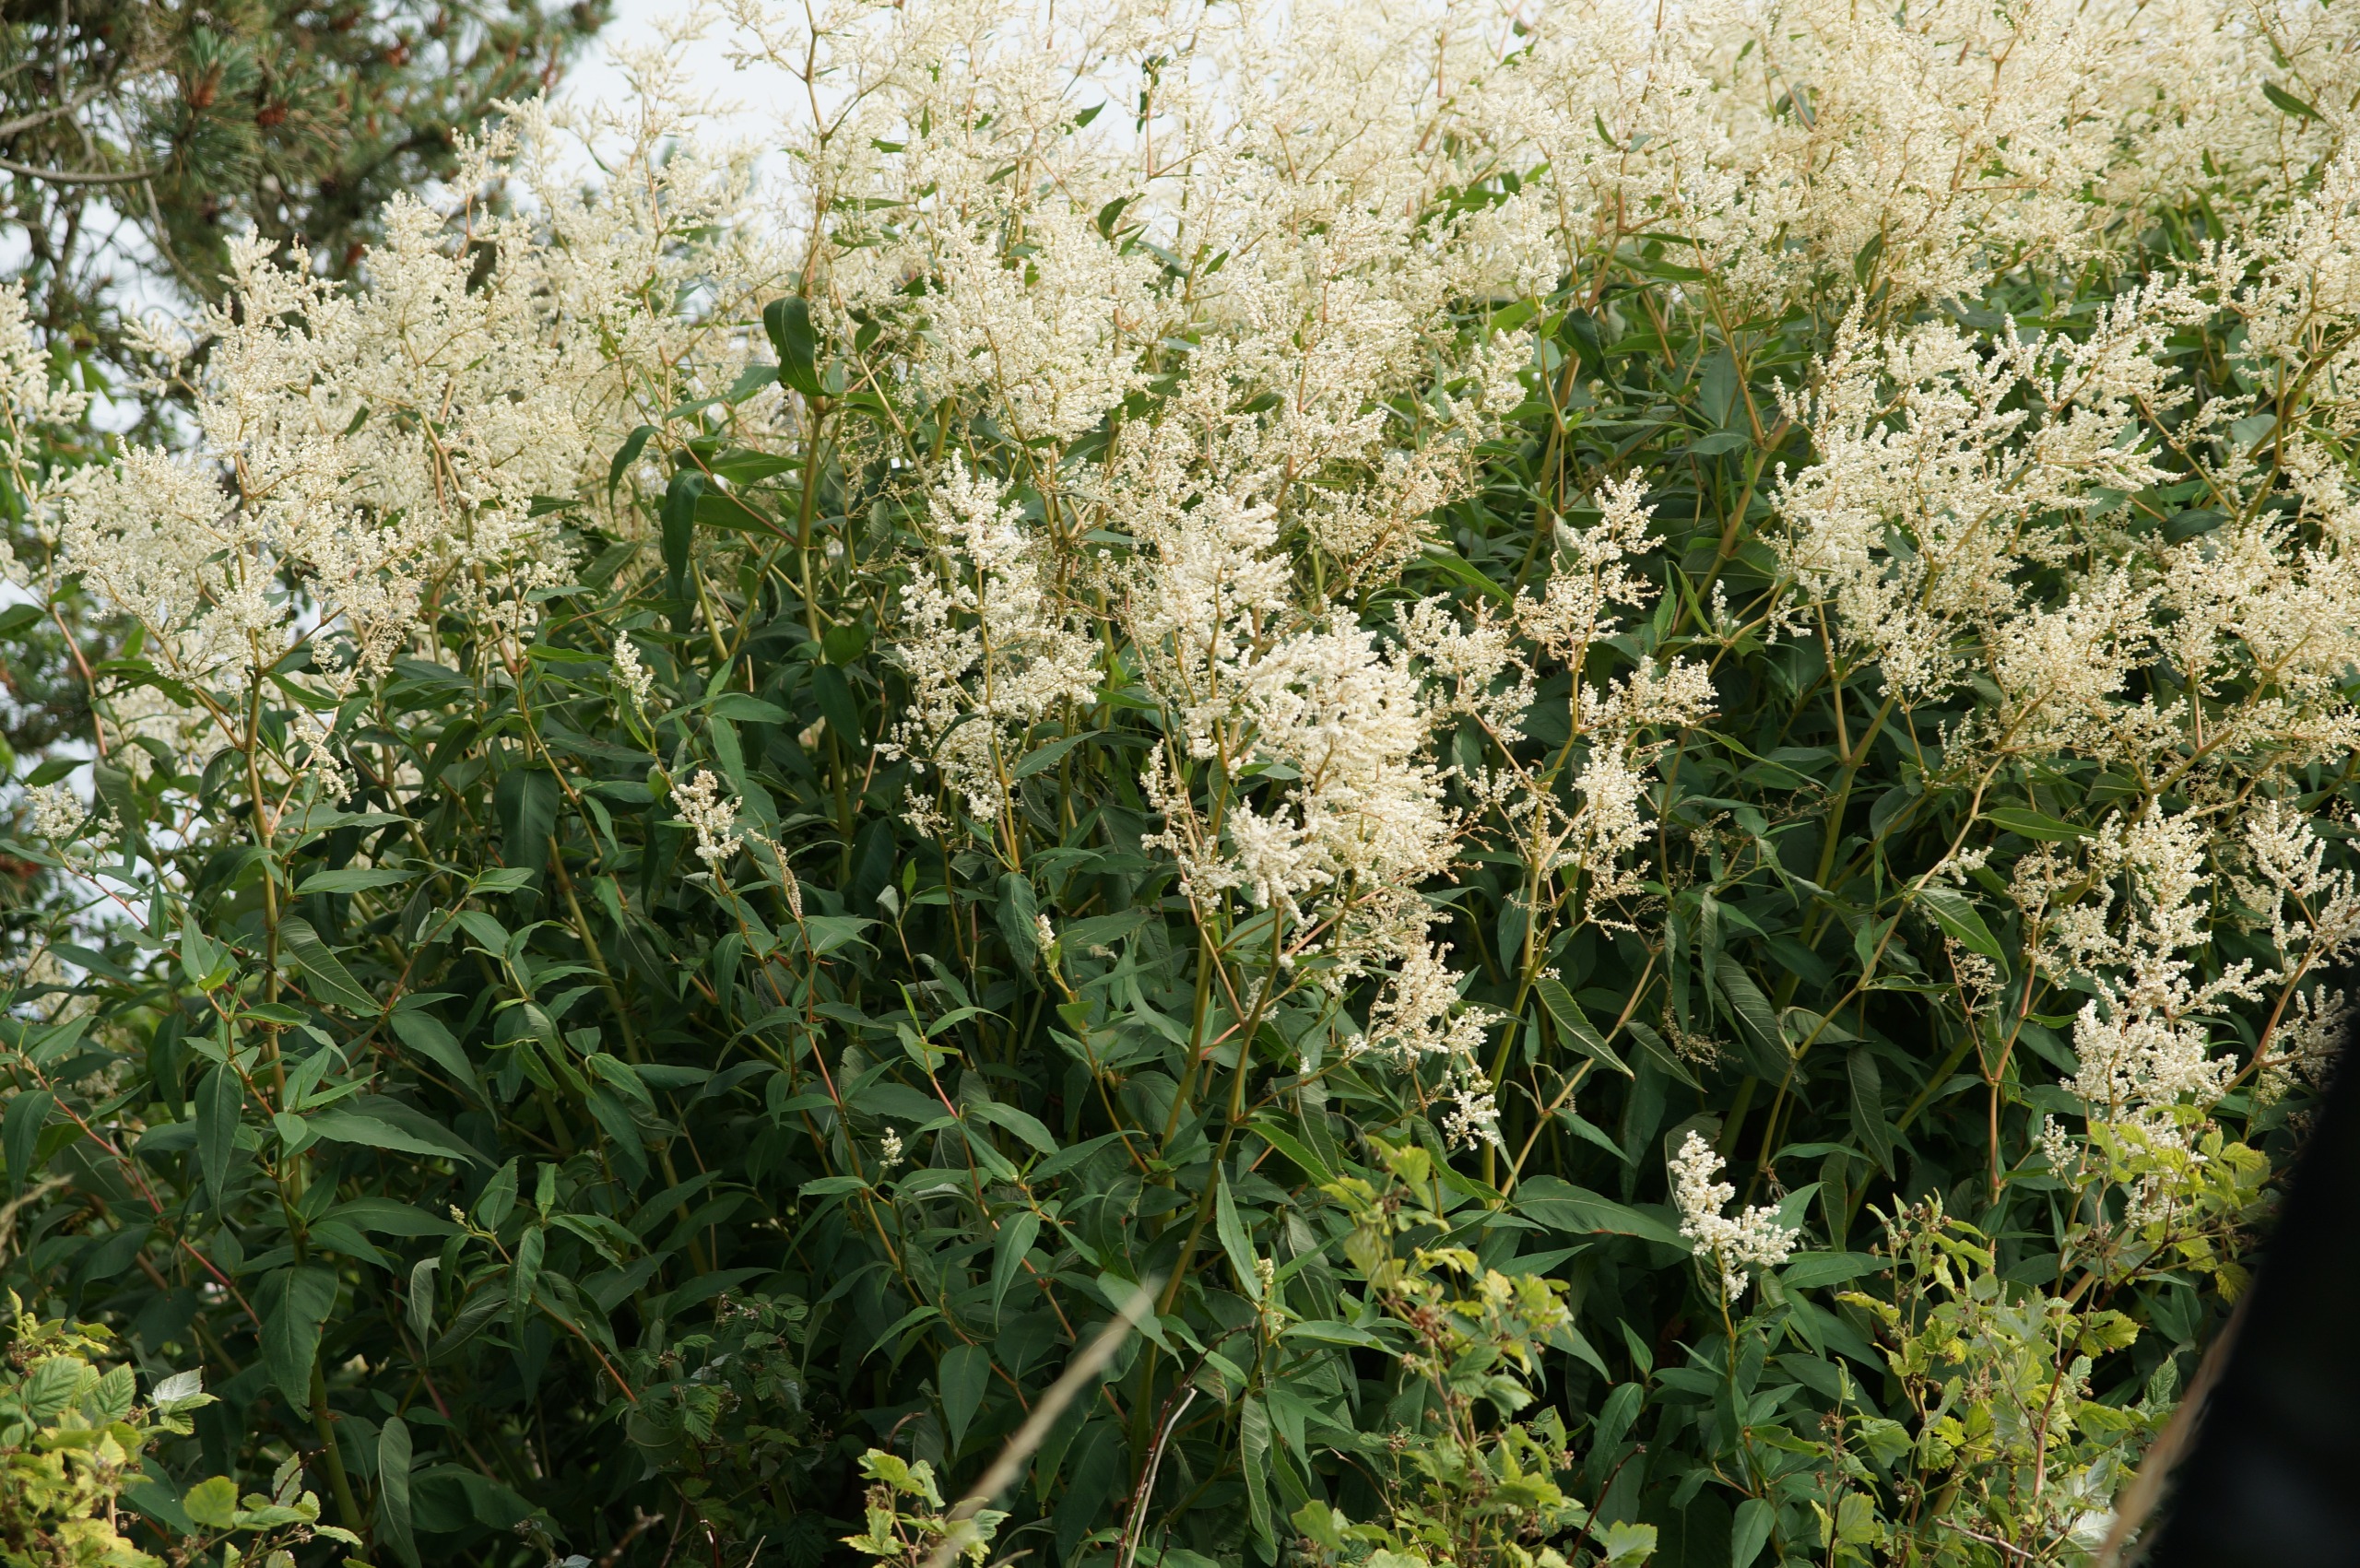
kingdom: Plantae
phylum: Tracheophyta
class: Magnoliopsida
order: Caryophyllales
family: Polygonaceae
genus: Koenigia
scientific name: Koenigia fennica
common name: Finsk pileurt
